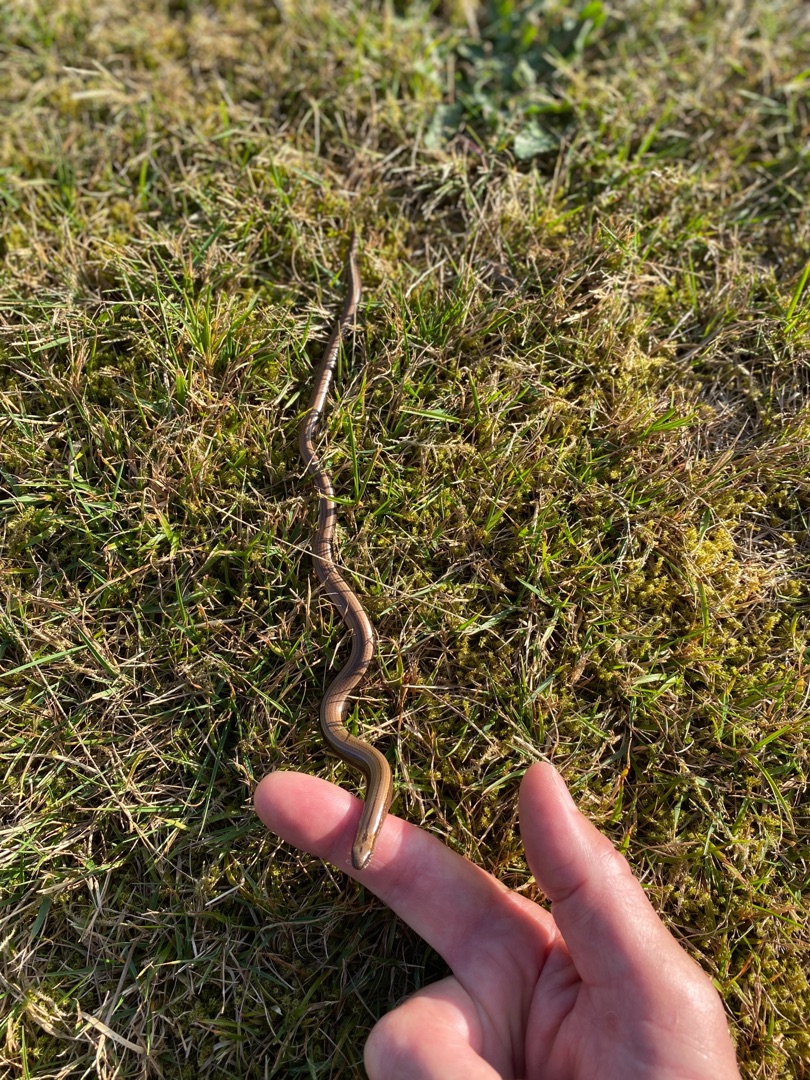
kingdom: Animalia
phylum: Chordata
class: Squamata
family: Anguidae
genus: Anguis
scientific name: Anguis fragilis
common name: Stålorm
